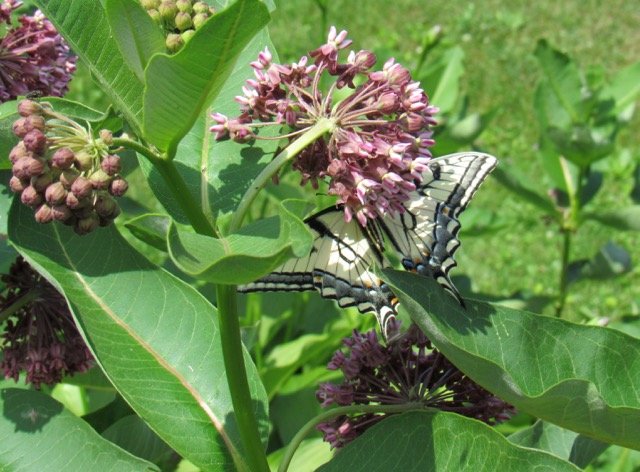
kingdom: Animalia
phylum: Arthropoda
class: Insecta
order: Lepidoptera
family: Papilionidae
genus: Pterourus
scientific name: Pterourus canadensis
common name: Canadian Tiger Swallowtail
